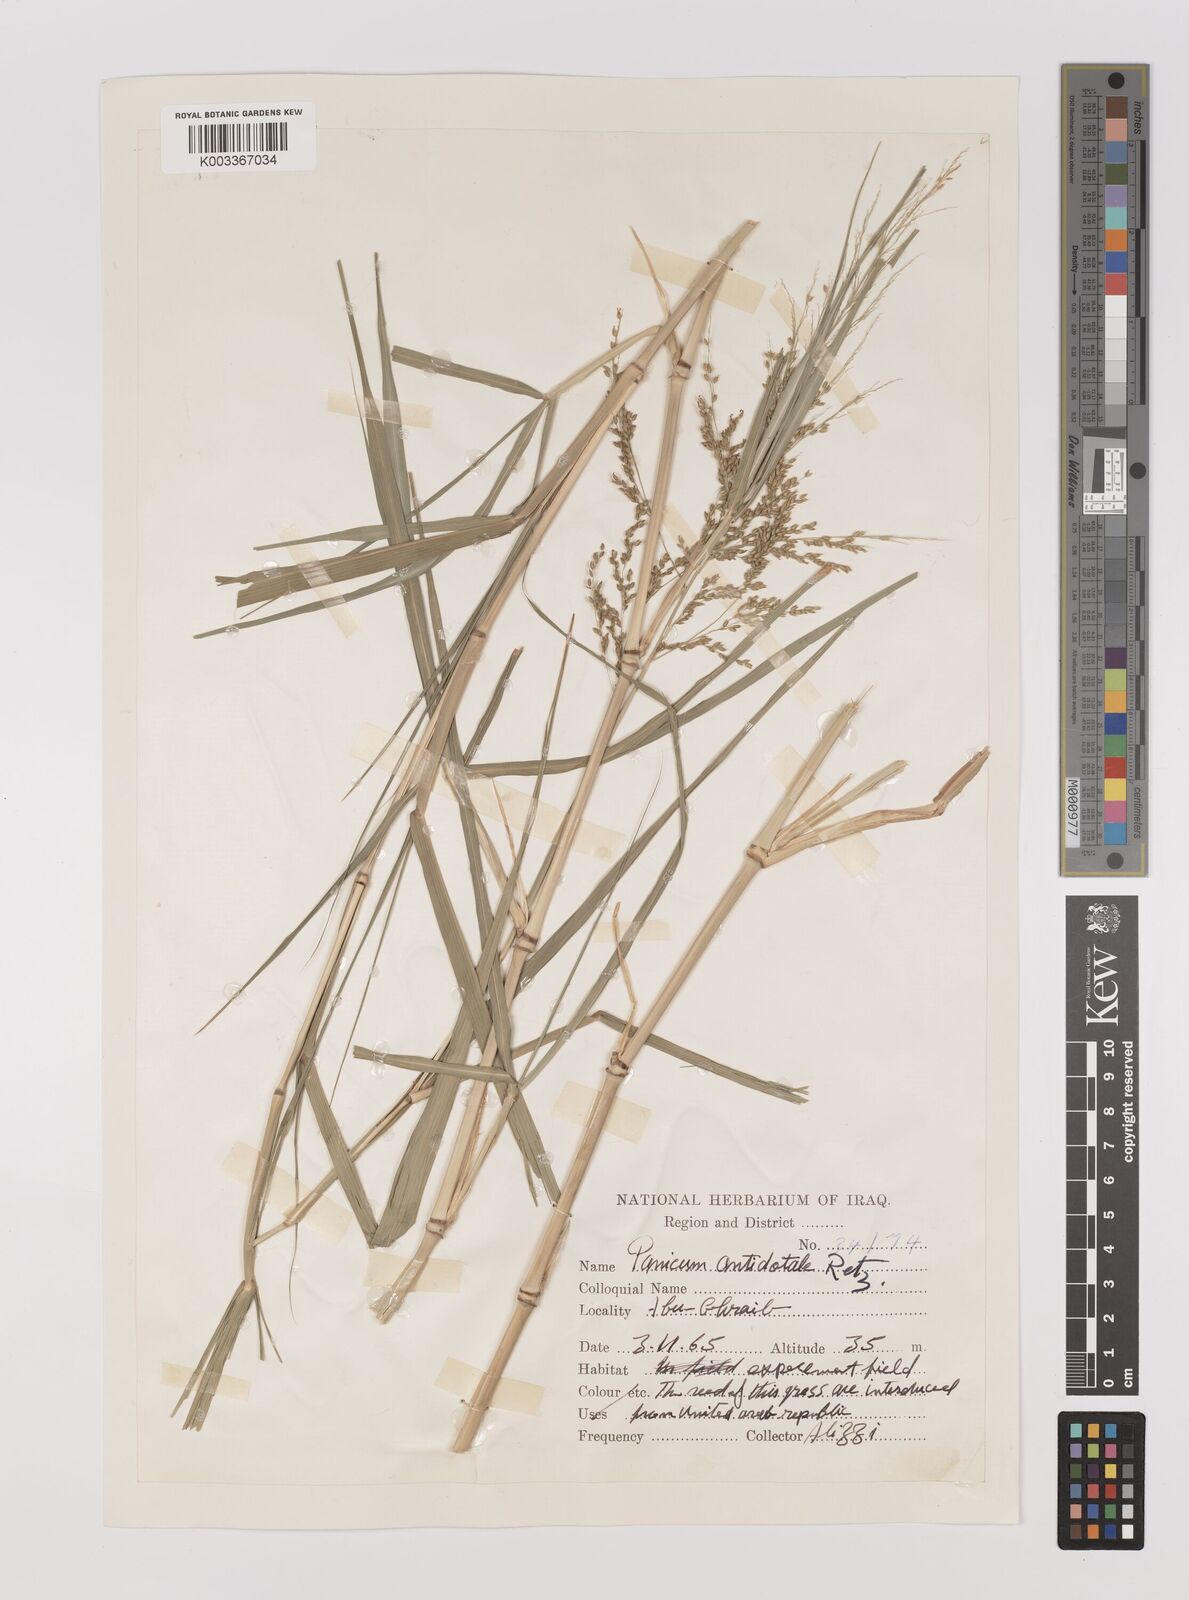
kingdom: Plantae
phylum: Tracheophyta
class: Liliopsida
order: Poales
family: Poaceae
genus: Panicum
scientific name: Panicum antidotale
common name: Blue panicum
